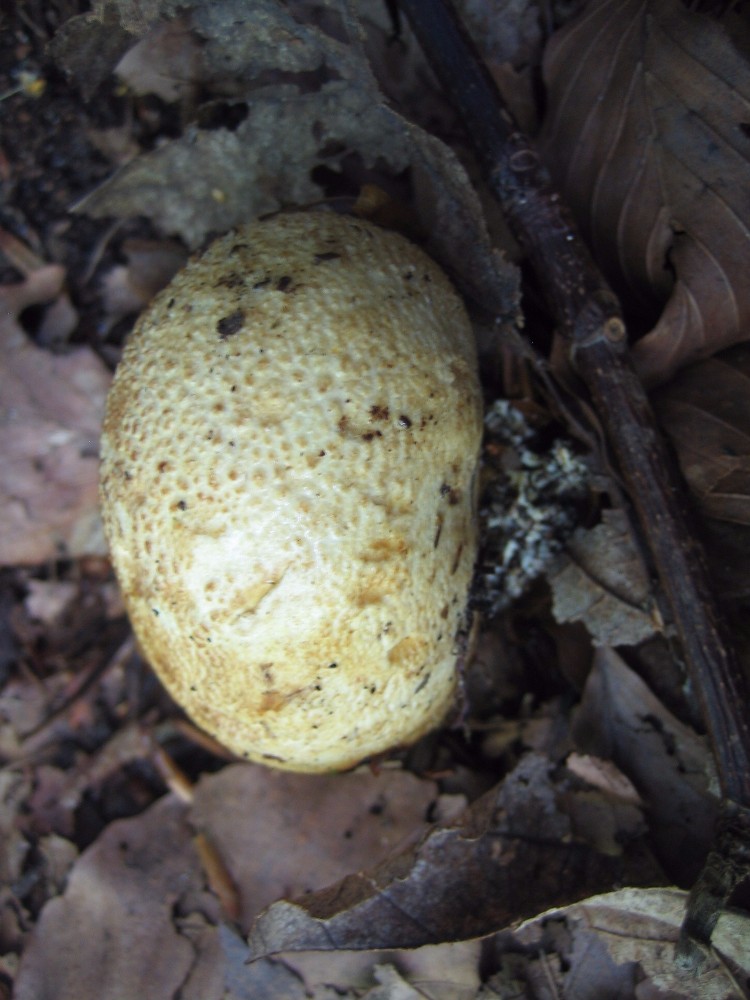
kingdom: Fungi
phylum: Basidiomycota
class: Agaricomycetes
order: Boletales
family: Sclerodermataceae
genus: Scleroderma
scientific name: Scleroderma citrinum
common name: almindelig bruskbold
